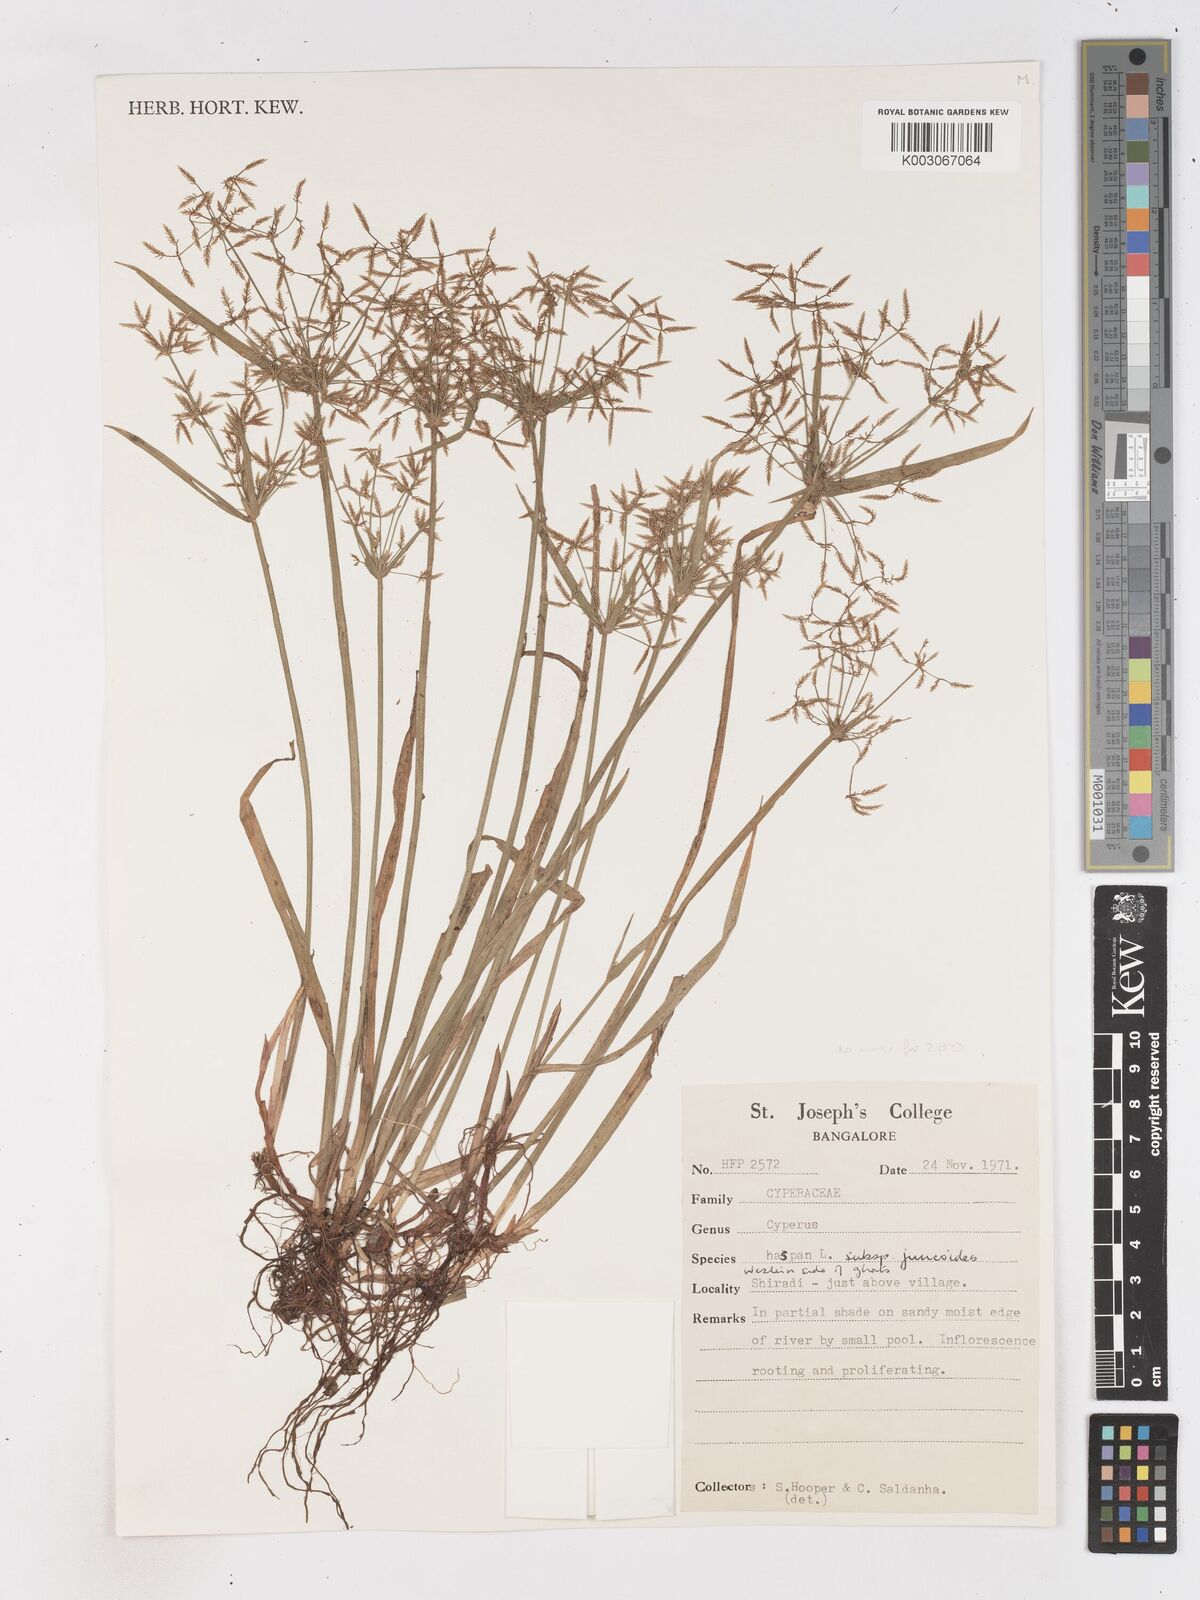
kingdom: Plantae
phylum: Tracheophyta
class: Liliopsida
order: Poales
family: Cyperaceae
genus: Cyperus
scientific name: Cyperus haspan
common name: Haspan flatsedge
